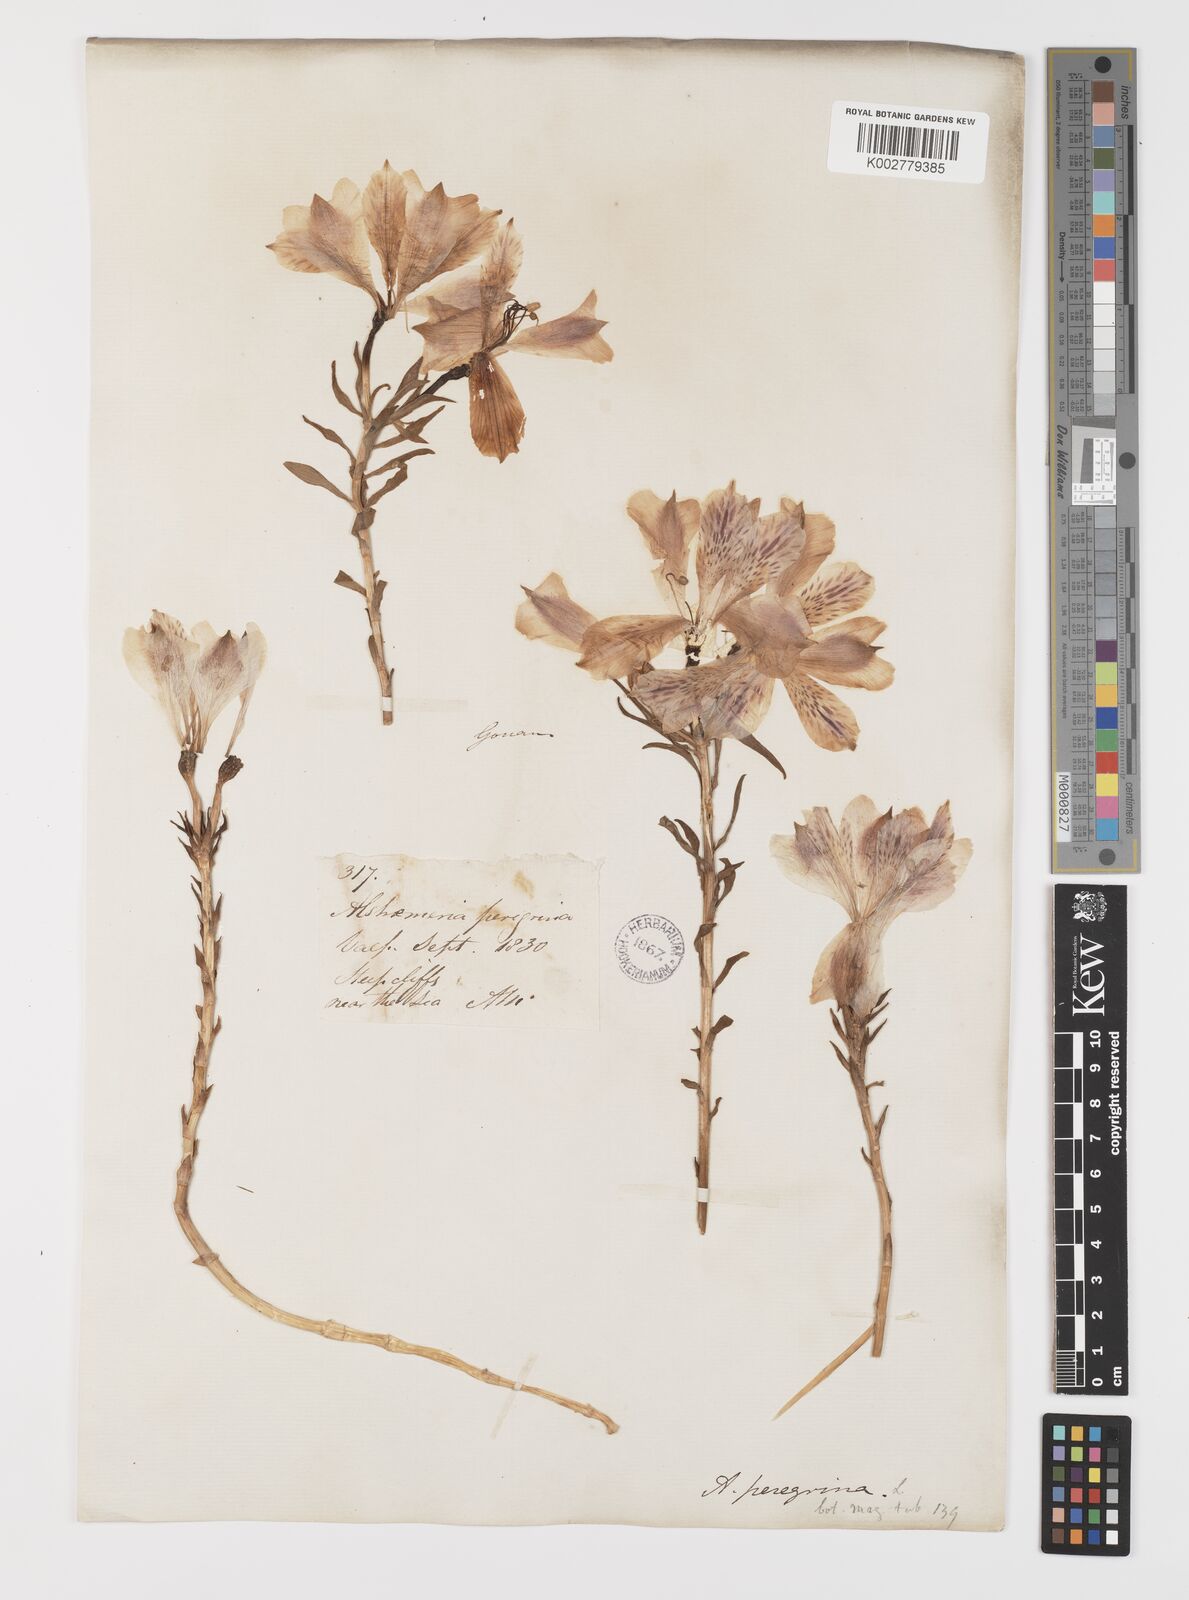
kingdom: Plantae
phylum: Tracheophyta
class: Liliopsida
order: Liliales
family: Alstroemeriaceae
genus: Alstroemeria
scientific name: Alstroemeria pelegrina
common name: Peruvian-lily
